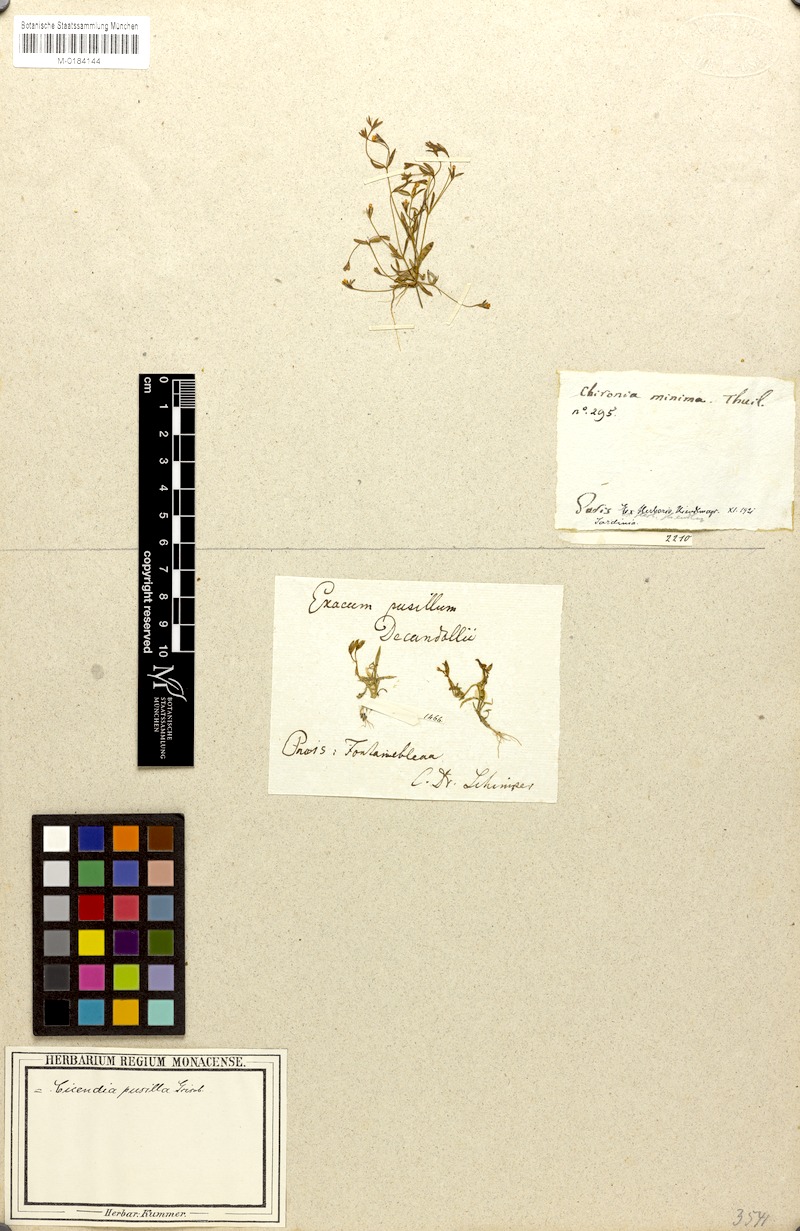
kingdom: Plantae
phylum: Tracheophyta
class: Magnoliopsida
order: Gentianales
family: Gentianaceae
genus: Exaculum
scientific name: Exaculum pusillum
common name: Guernsey centaury
